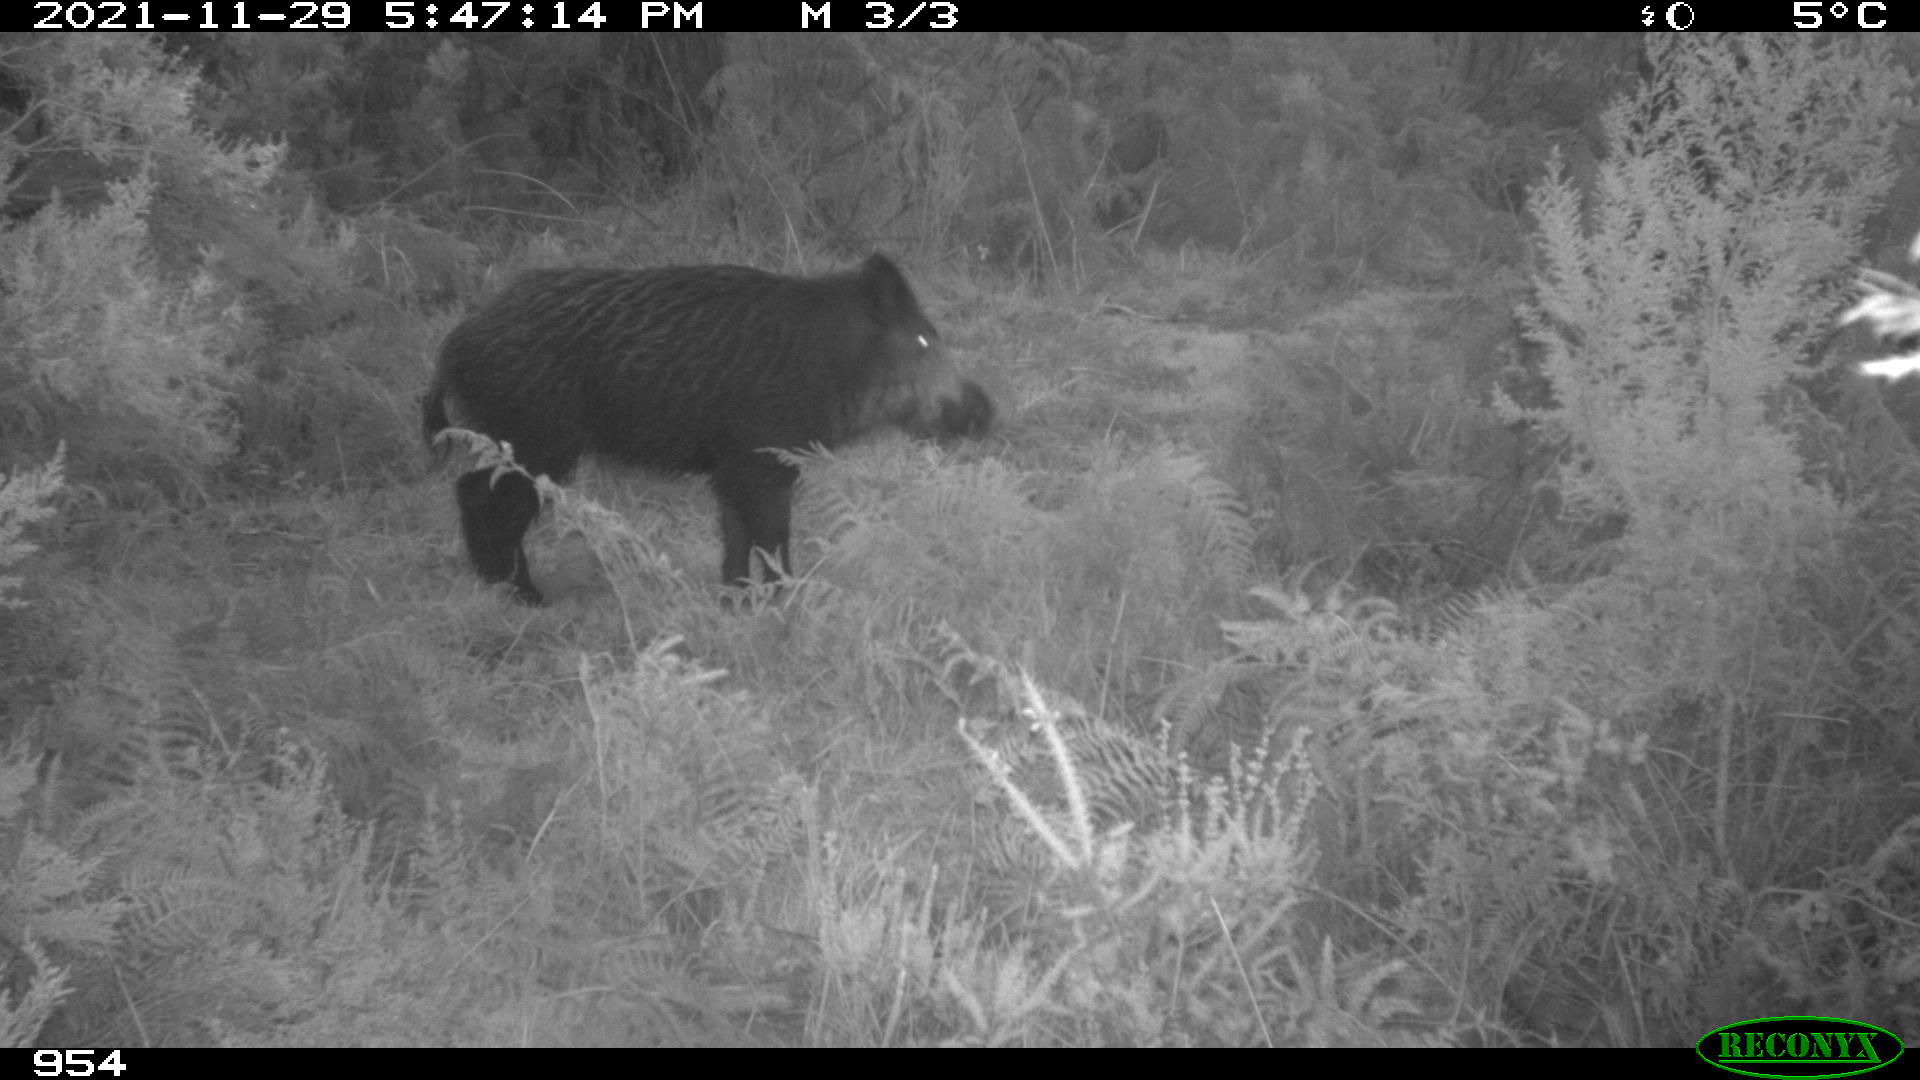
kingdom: Animalia
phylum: Chordata
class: Mammalia
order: Artiodactyla
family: Suidae
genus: Sus
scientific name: Sus scrofa
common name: Wild boar
